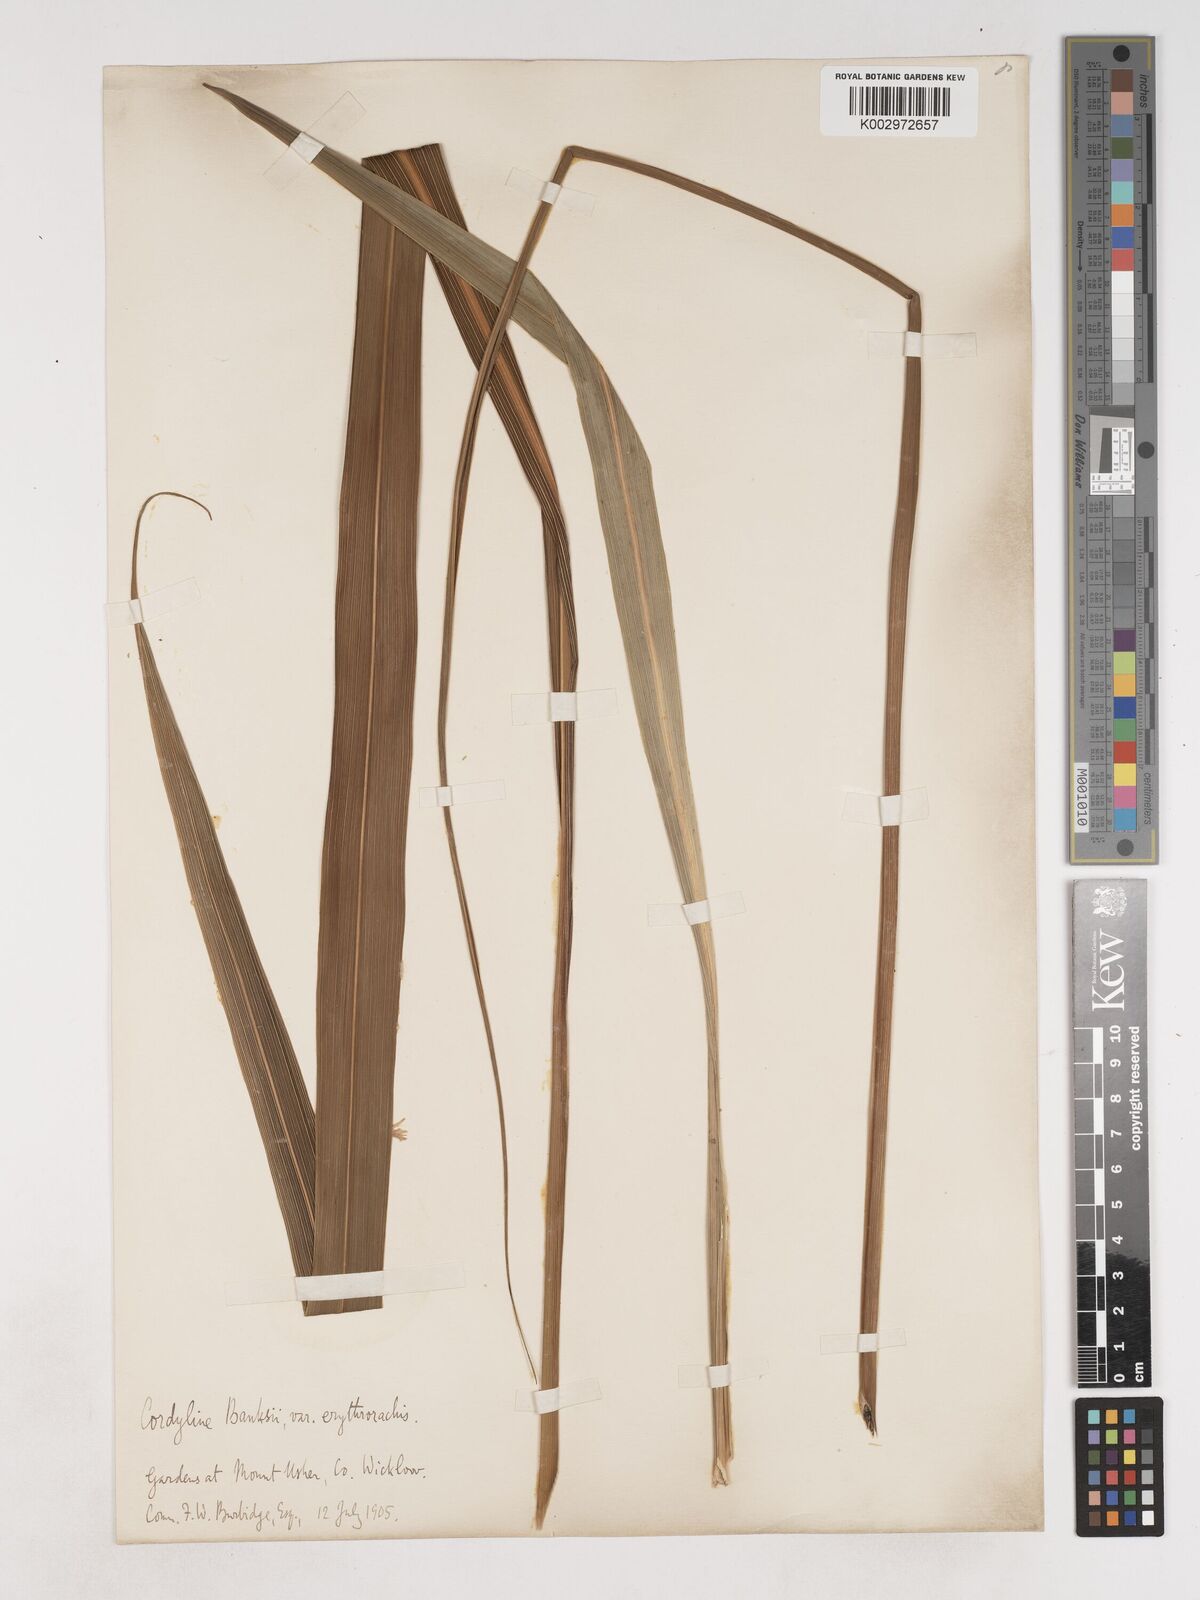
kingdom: Plantae
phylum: Tracheophyta
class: Liliopsida
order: Asparagales
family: Asparagaceae
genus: Cordyline
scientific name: Cordyline banksii
